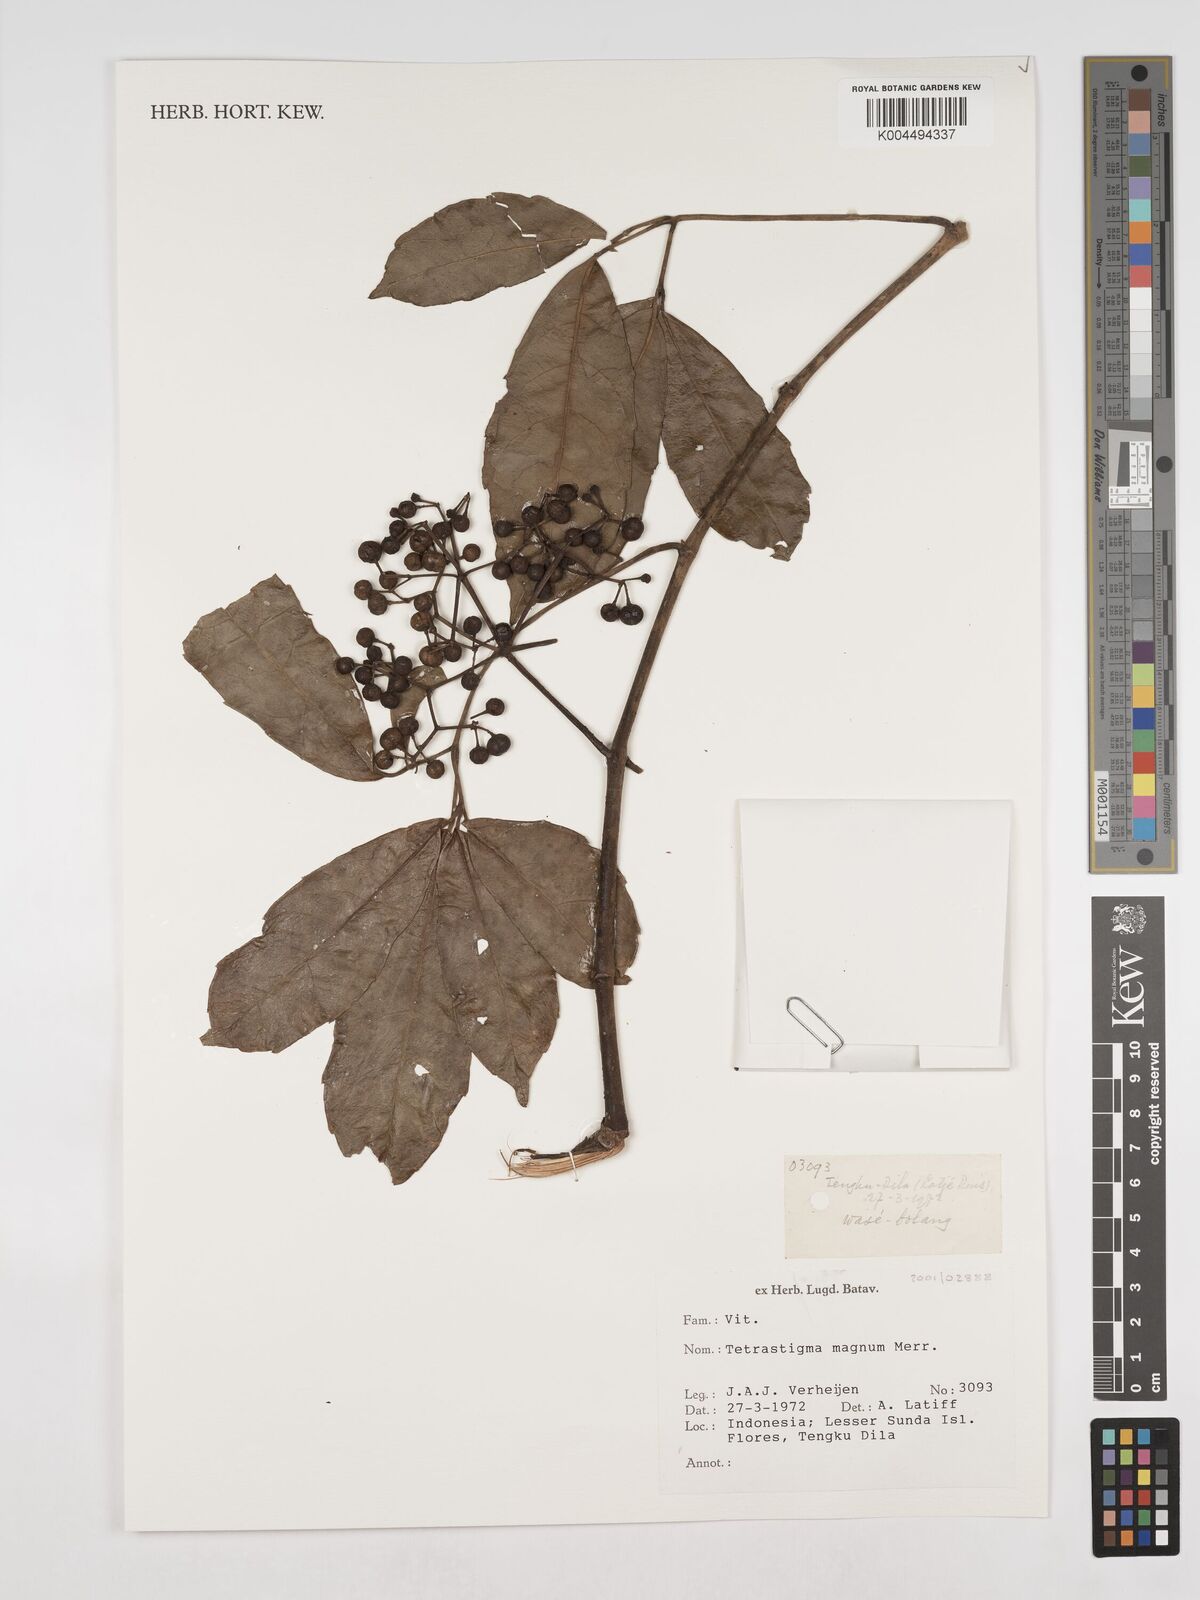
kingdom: Plantae
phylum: Tracheophyta
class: Magnoliopsida
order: Vitales
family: Vitaceae
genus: Tetrastigma
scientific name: Tetrastigma magnum
